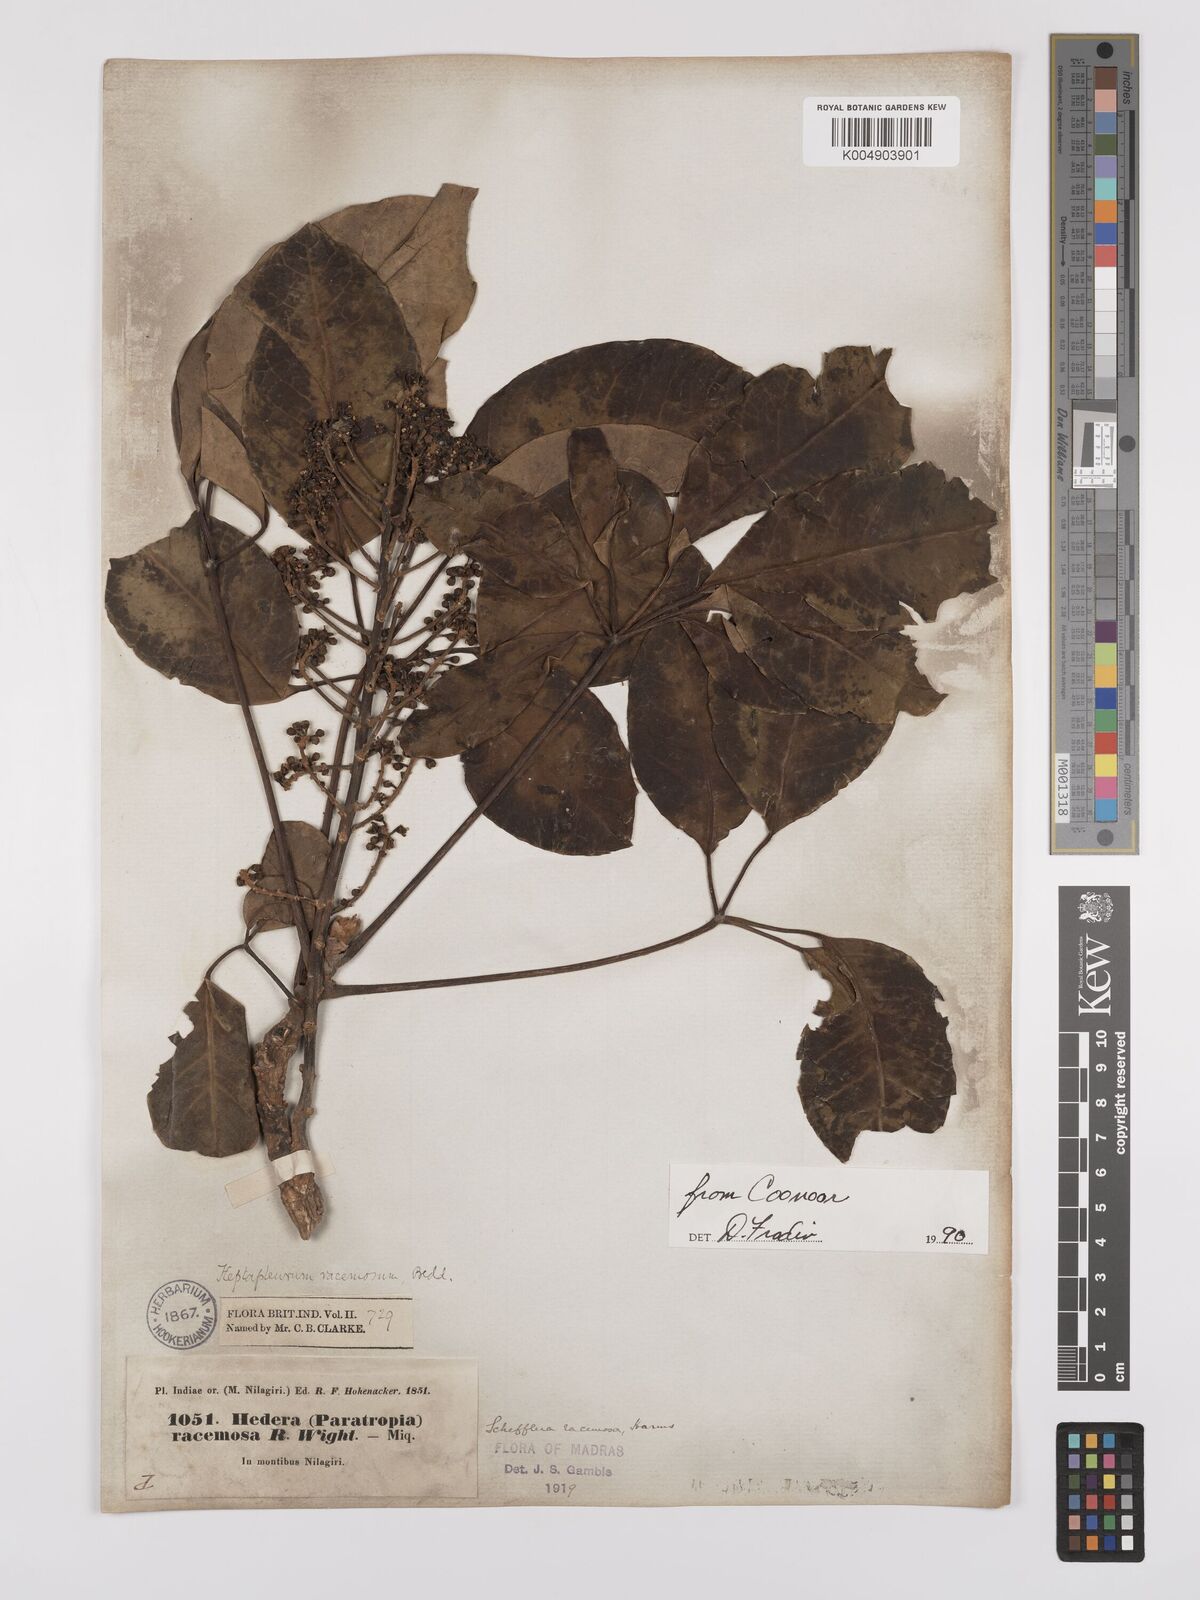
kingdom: Plantae
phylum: Tracheophyta
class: Magnoliopsida
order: Apiales
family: Araliaceae
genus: Heptapleurum
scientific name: Heptapleurum
